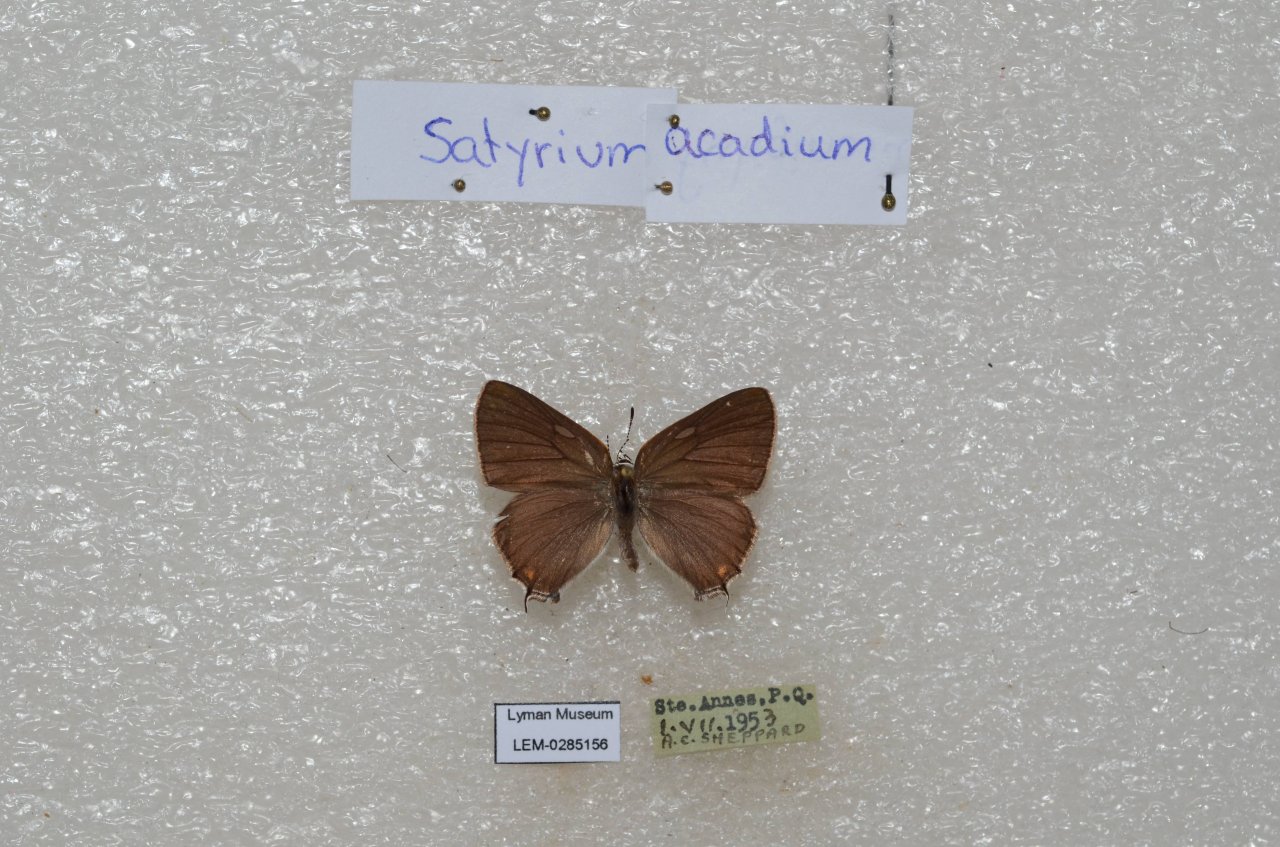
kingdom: Animalia
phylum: Arthropoda
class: Insecta
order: Lepidoptera
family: Lycaenidae
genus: Strymon
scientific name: Strymon acadica
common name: Acadian Hairstreak
